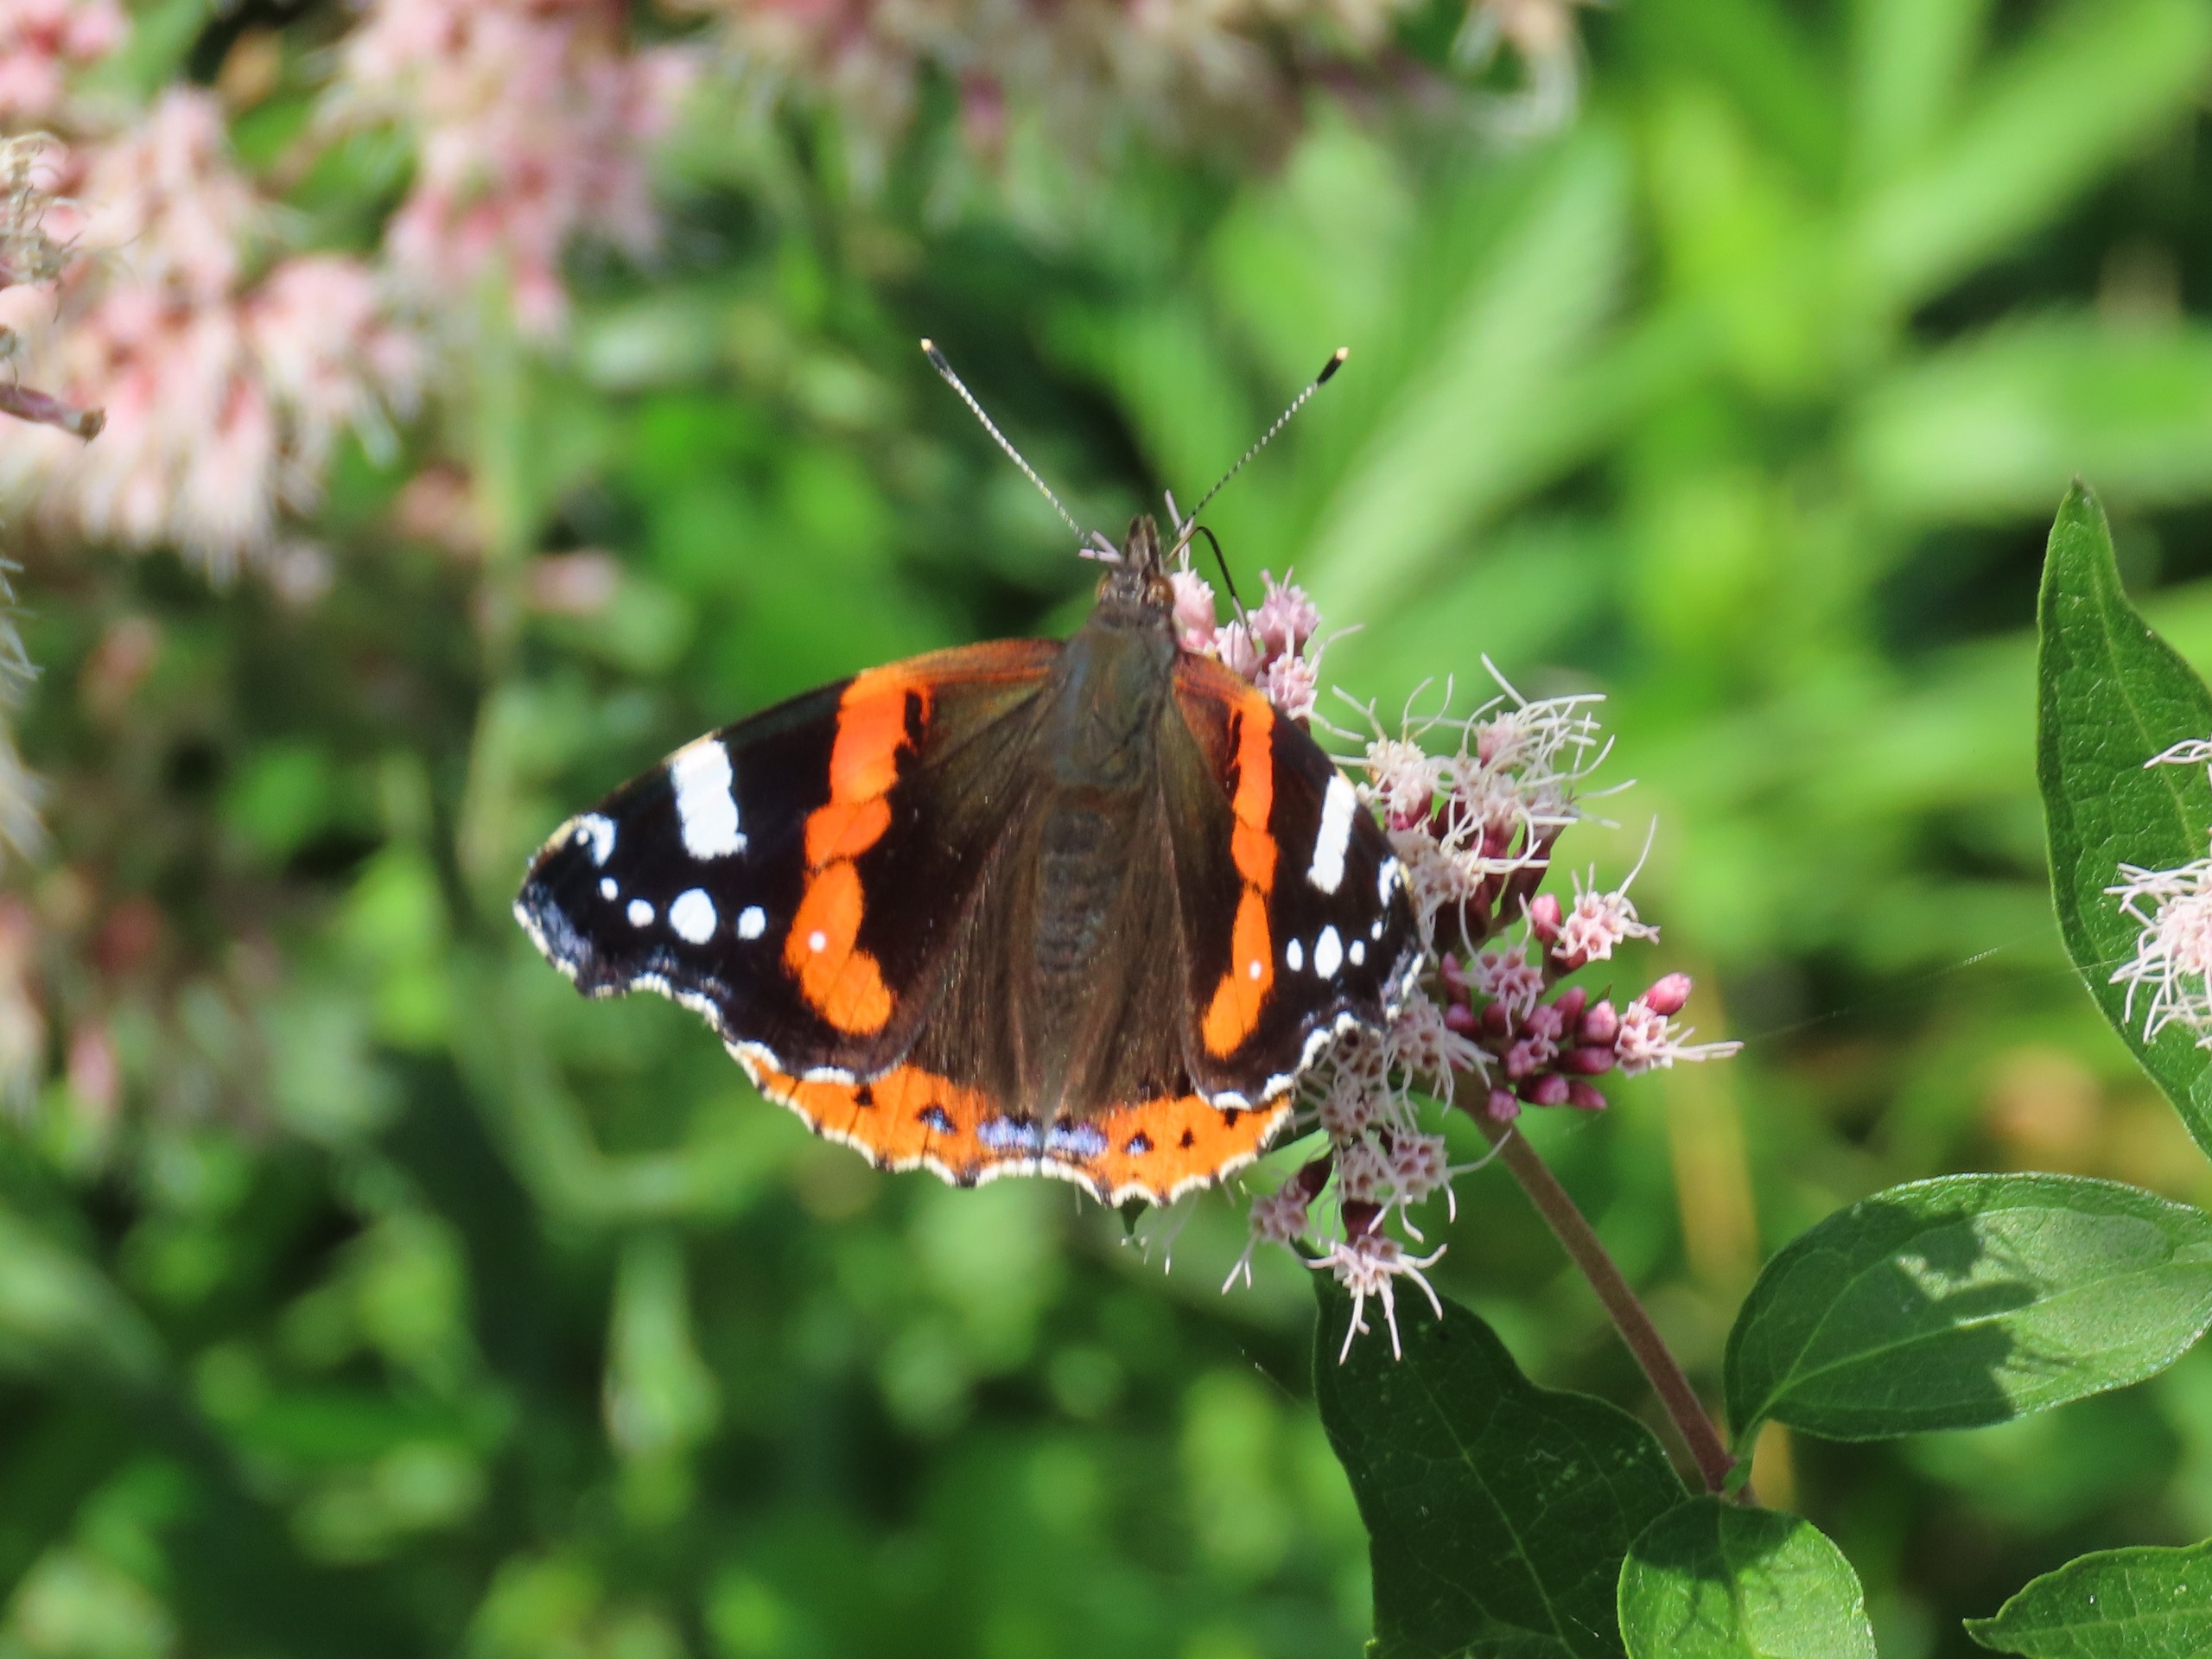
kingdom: Animalia
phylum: Arthropoda
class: Insecta
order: Lepidoptera
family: Nymphalidae
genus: Vanessa
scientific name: Vanessa atalanta
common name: Admiral
